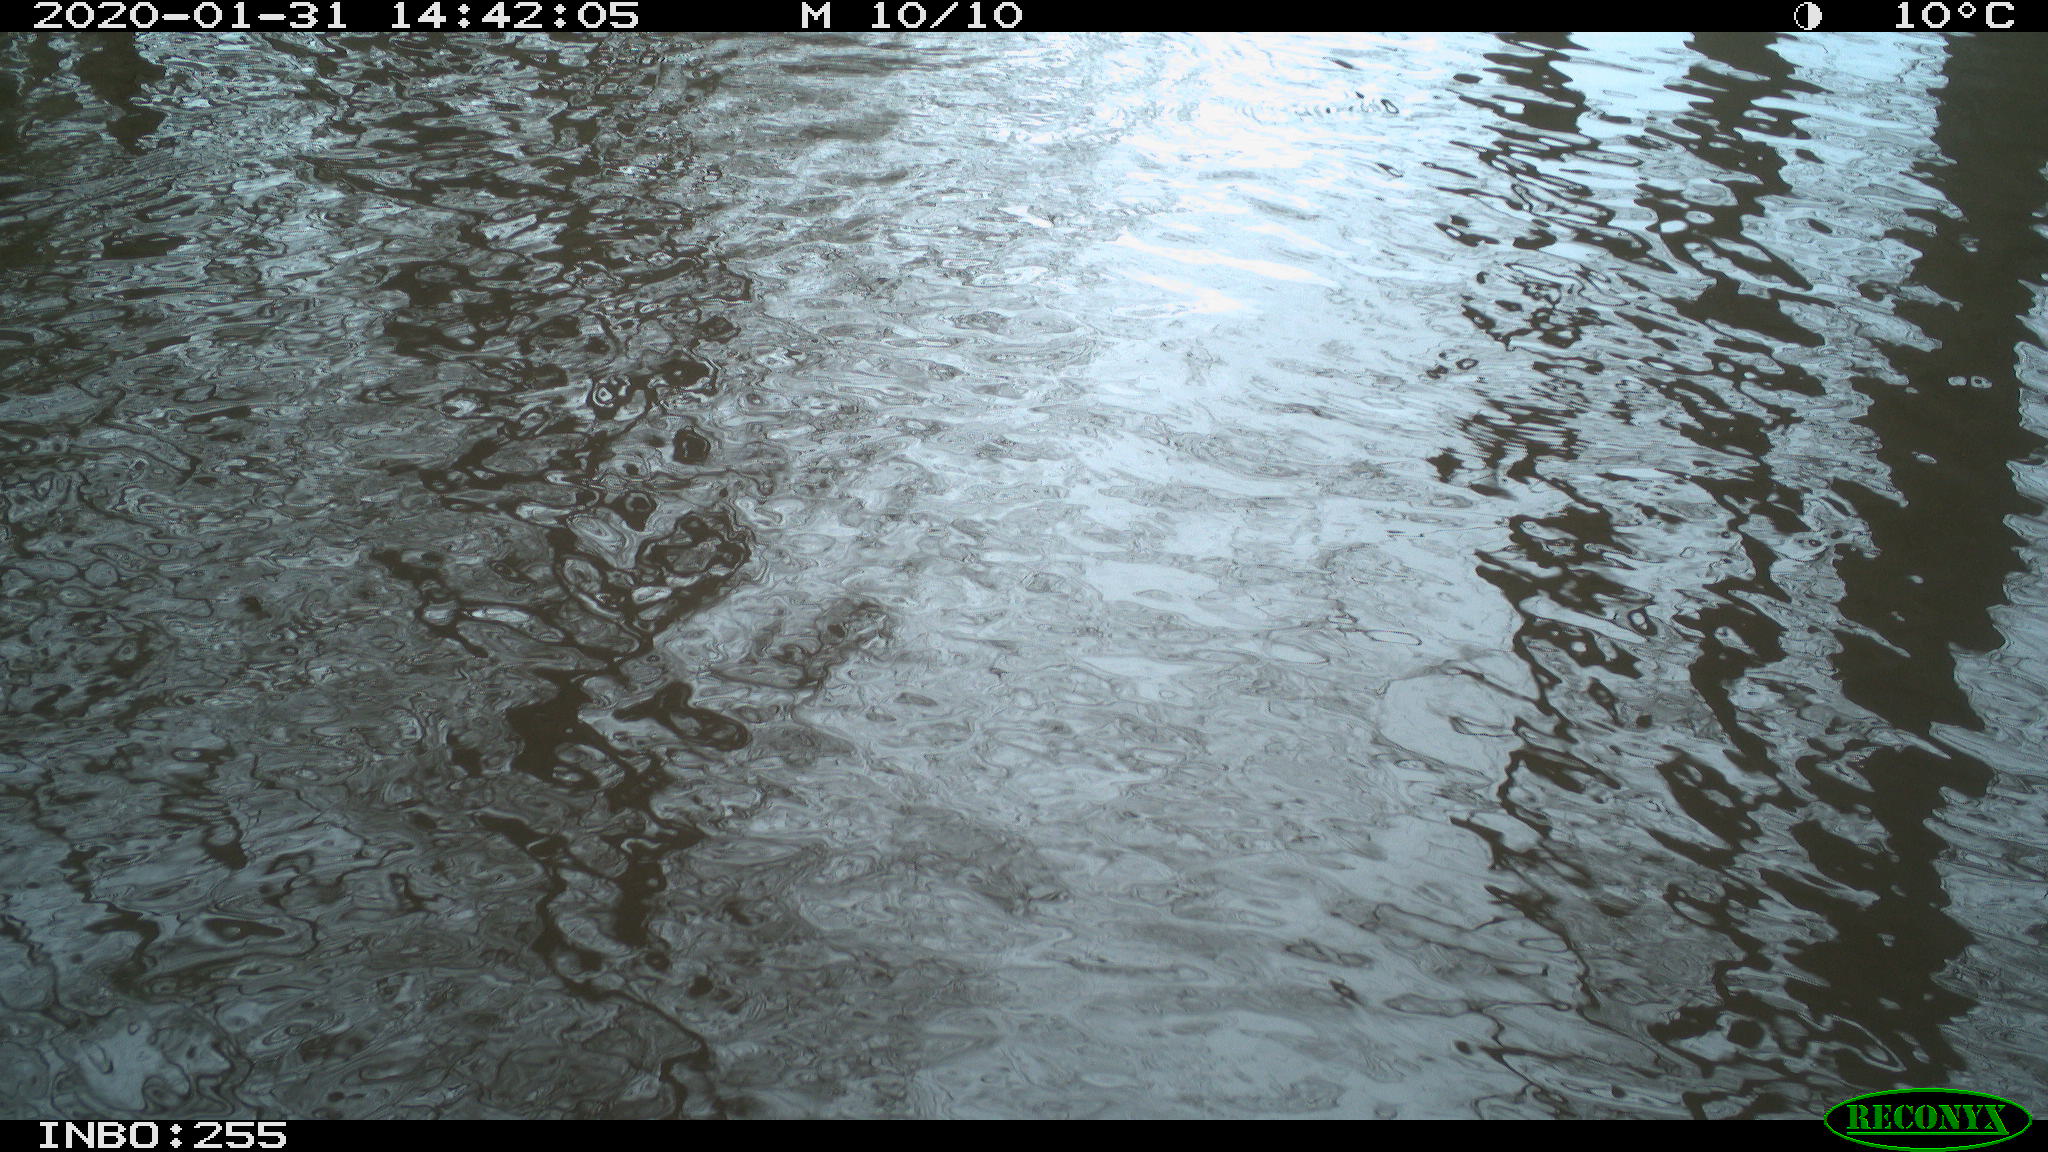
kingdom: Animalia
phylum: Chordata
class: Aves
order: Gruiformes
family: Rallidae
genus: Fulica
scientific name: Fulica atra
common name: Eurasian coot
